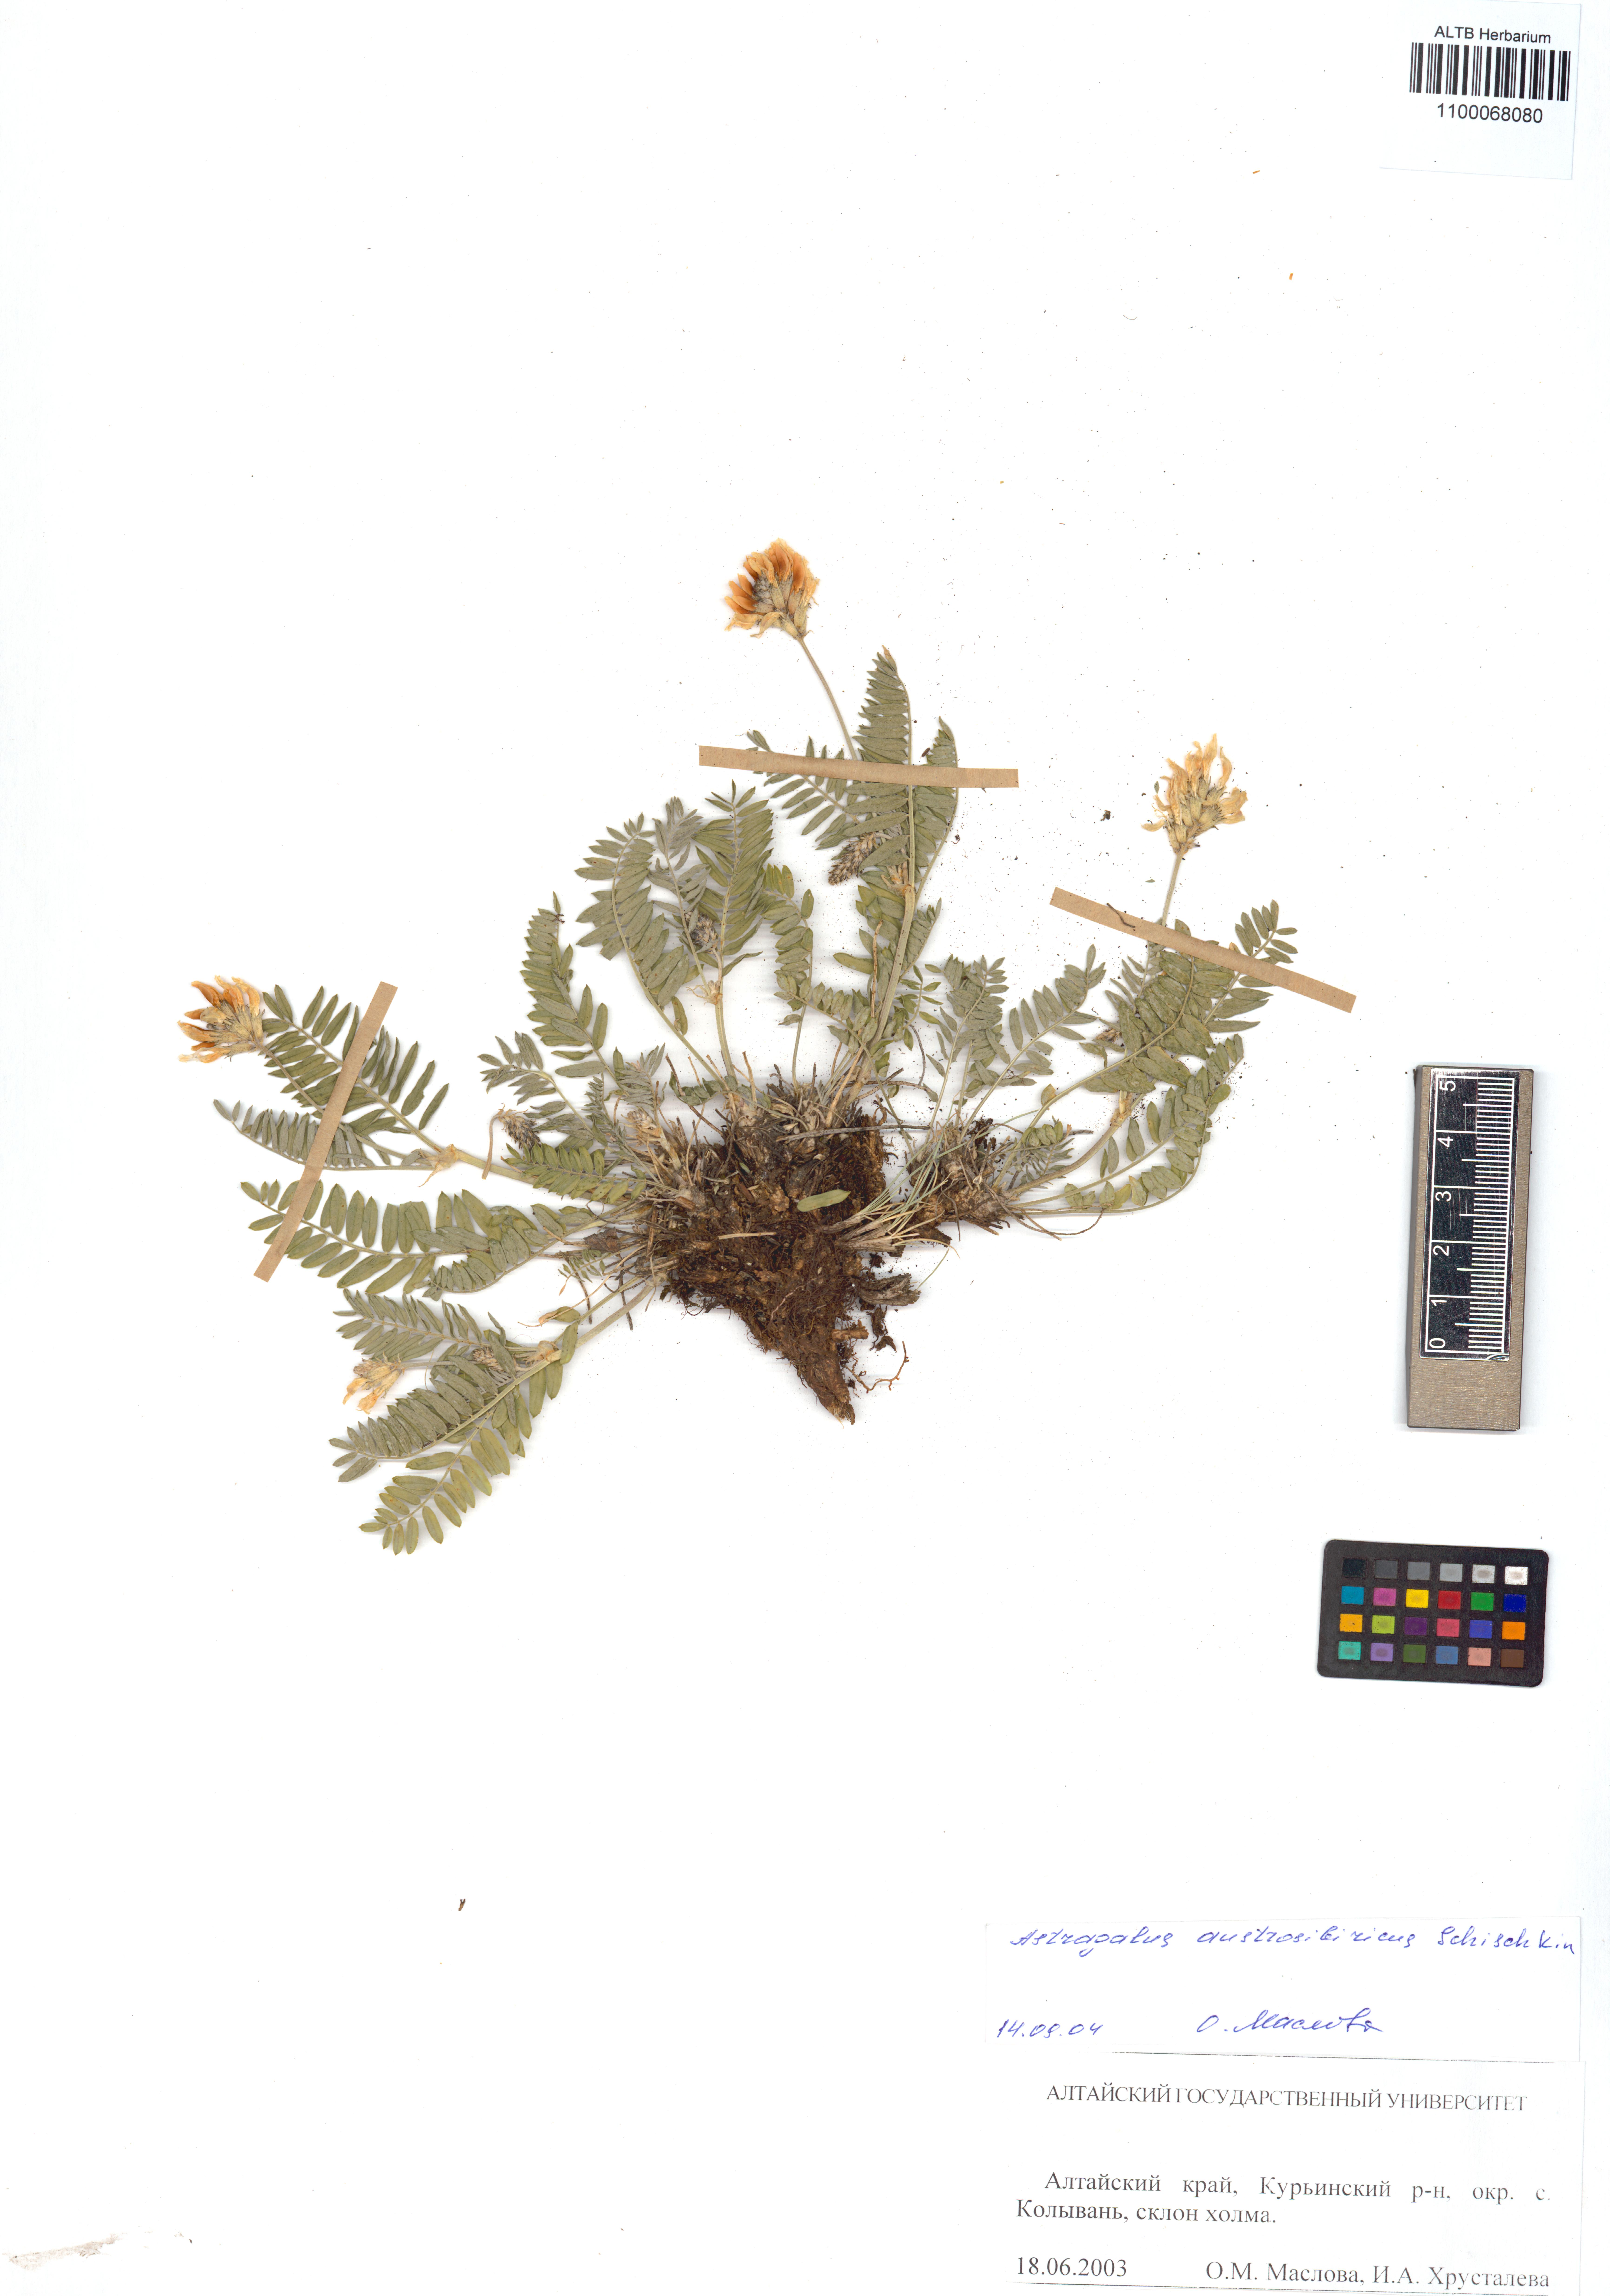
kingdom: Plantae
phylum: Tracheophyta
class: Magnoliopsida
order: Fabales
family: Fabaceae
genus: Astragalus
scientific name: Astragalus laxmannii
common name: Laxmann's milk-vetch
